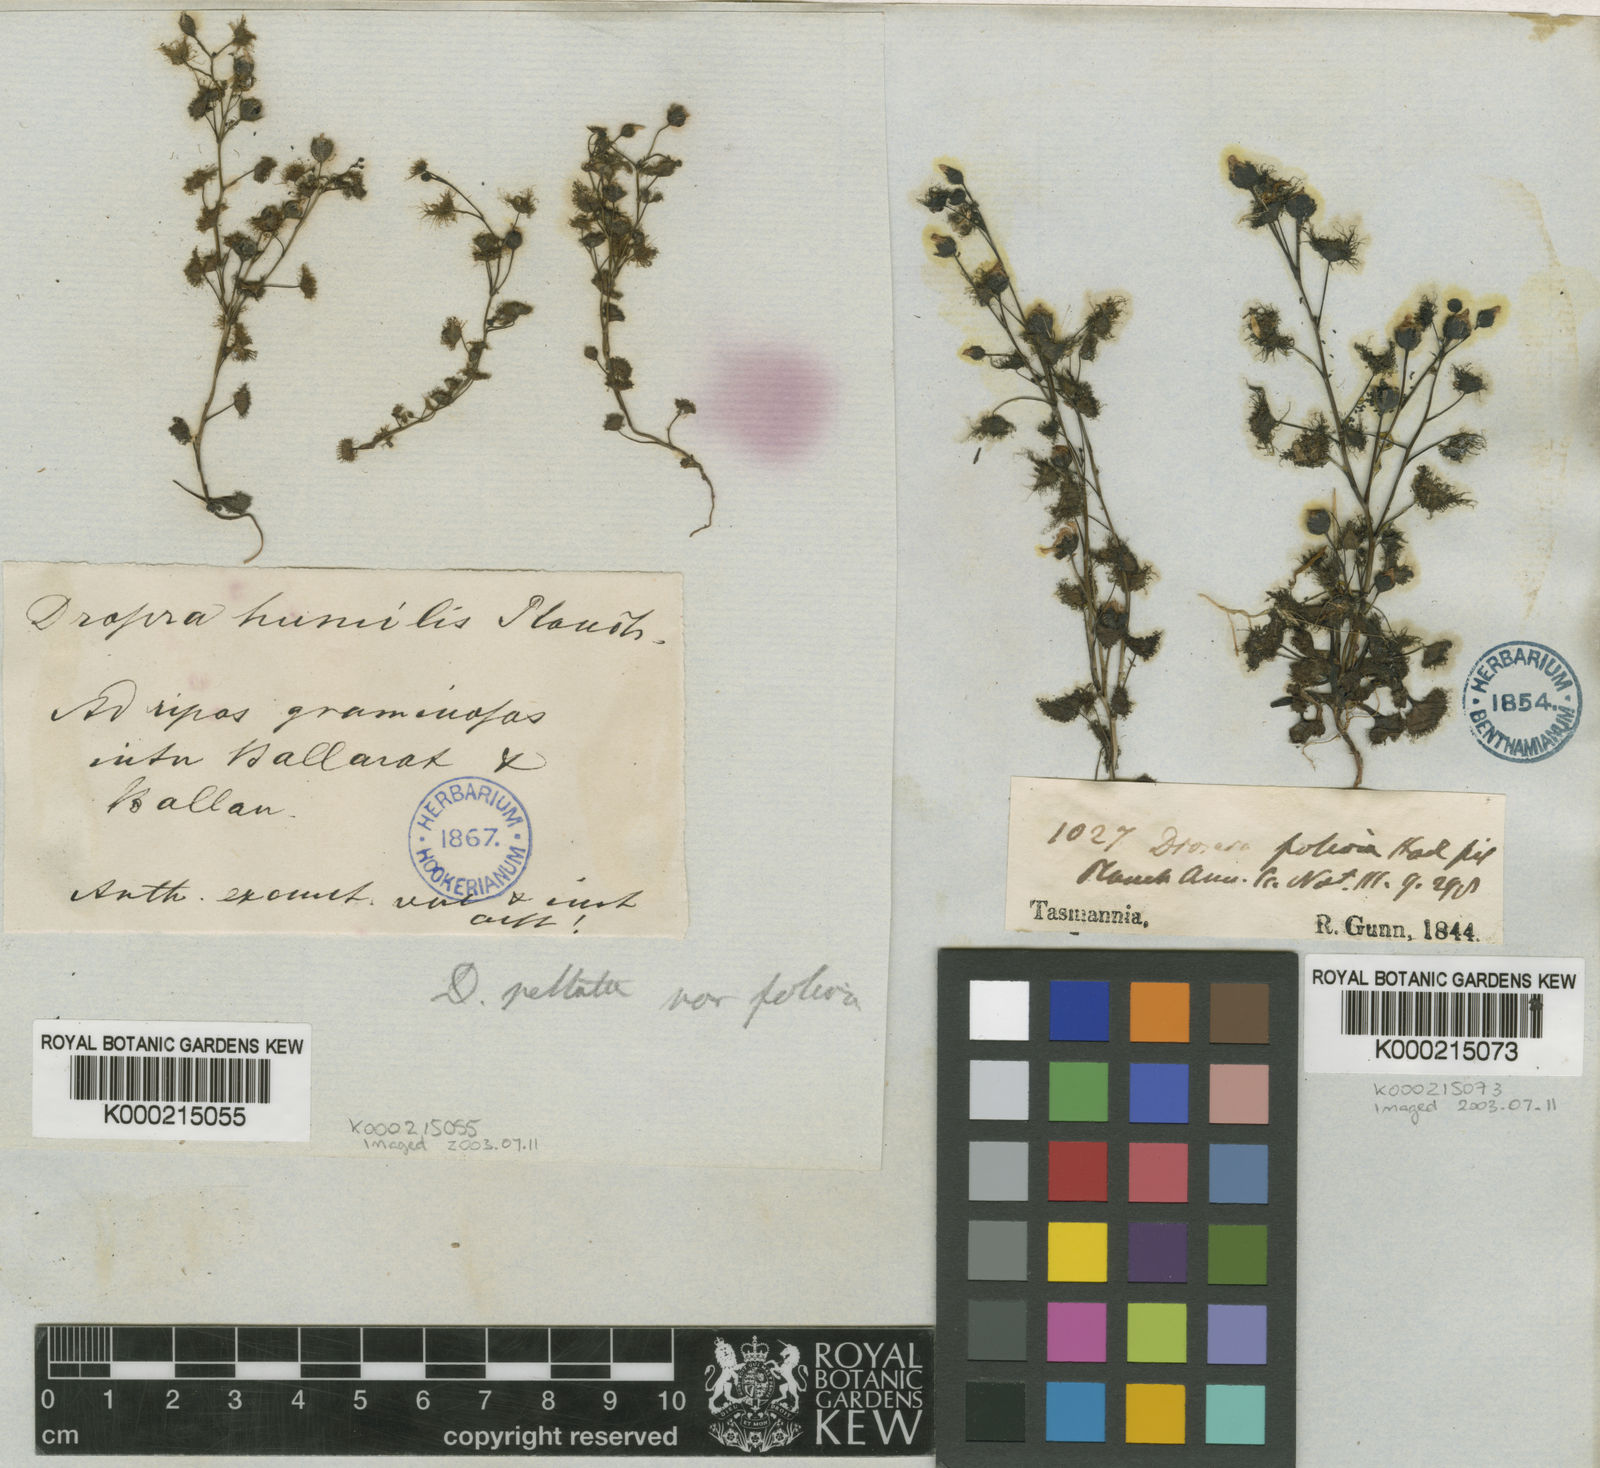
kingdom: Plantae
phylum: Tracheophyta
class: Magnoliopsida
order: Caryophyllales
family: Droseraceae
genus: Drosera
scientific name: Drosera hookeri
